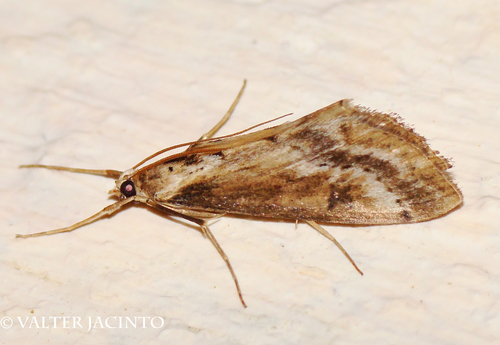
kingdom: Animalia
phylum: Arthropoda
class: Insecta
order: Lepidoptera
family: Crambidae
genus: Evergestis
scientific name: Evergestis isatidalis
